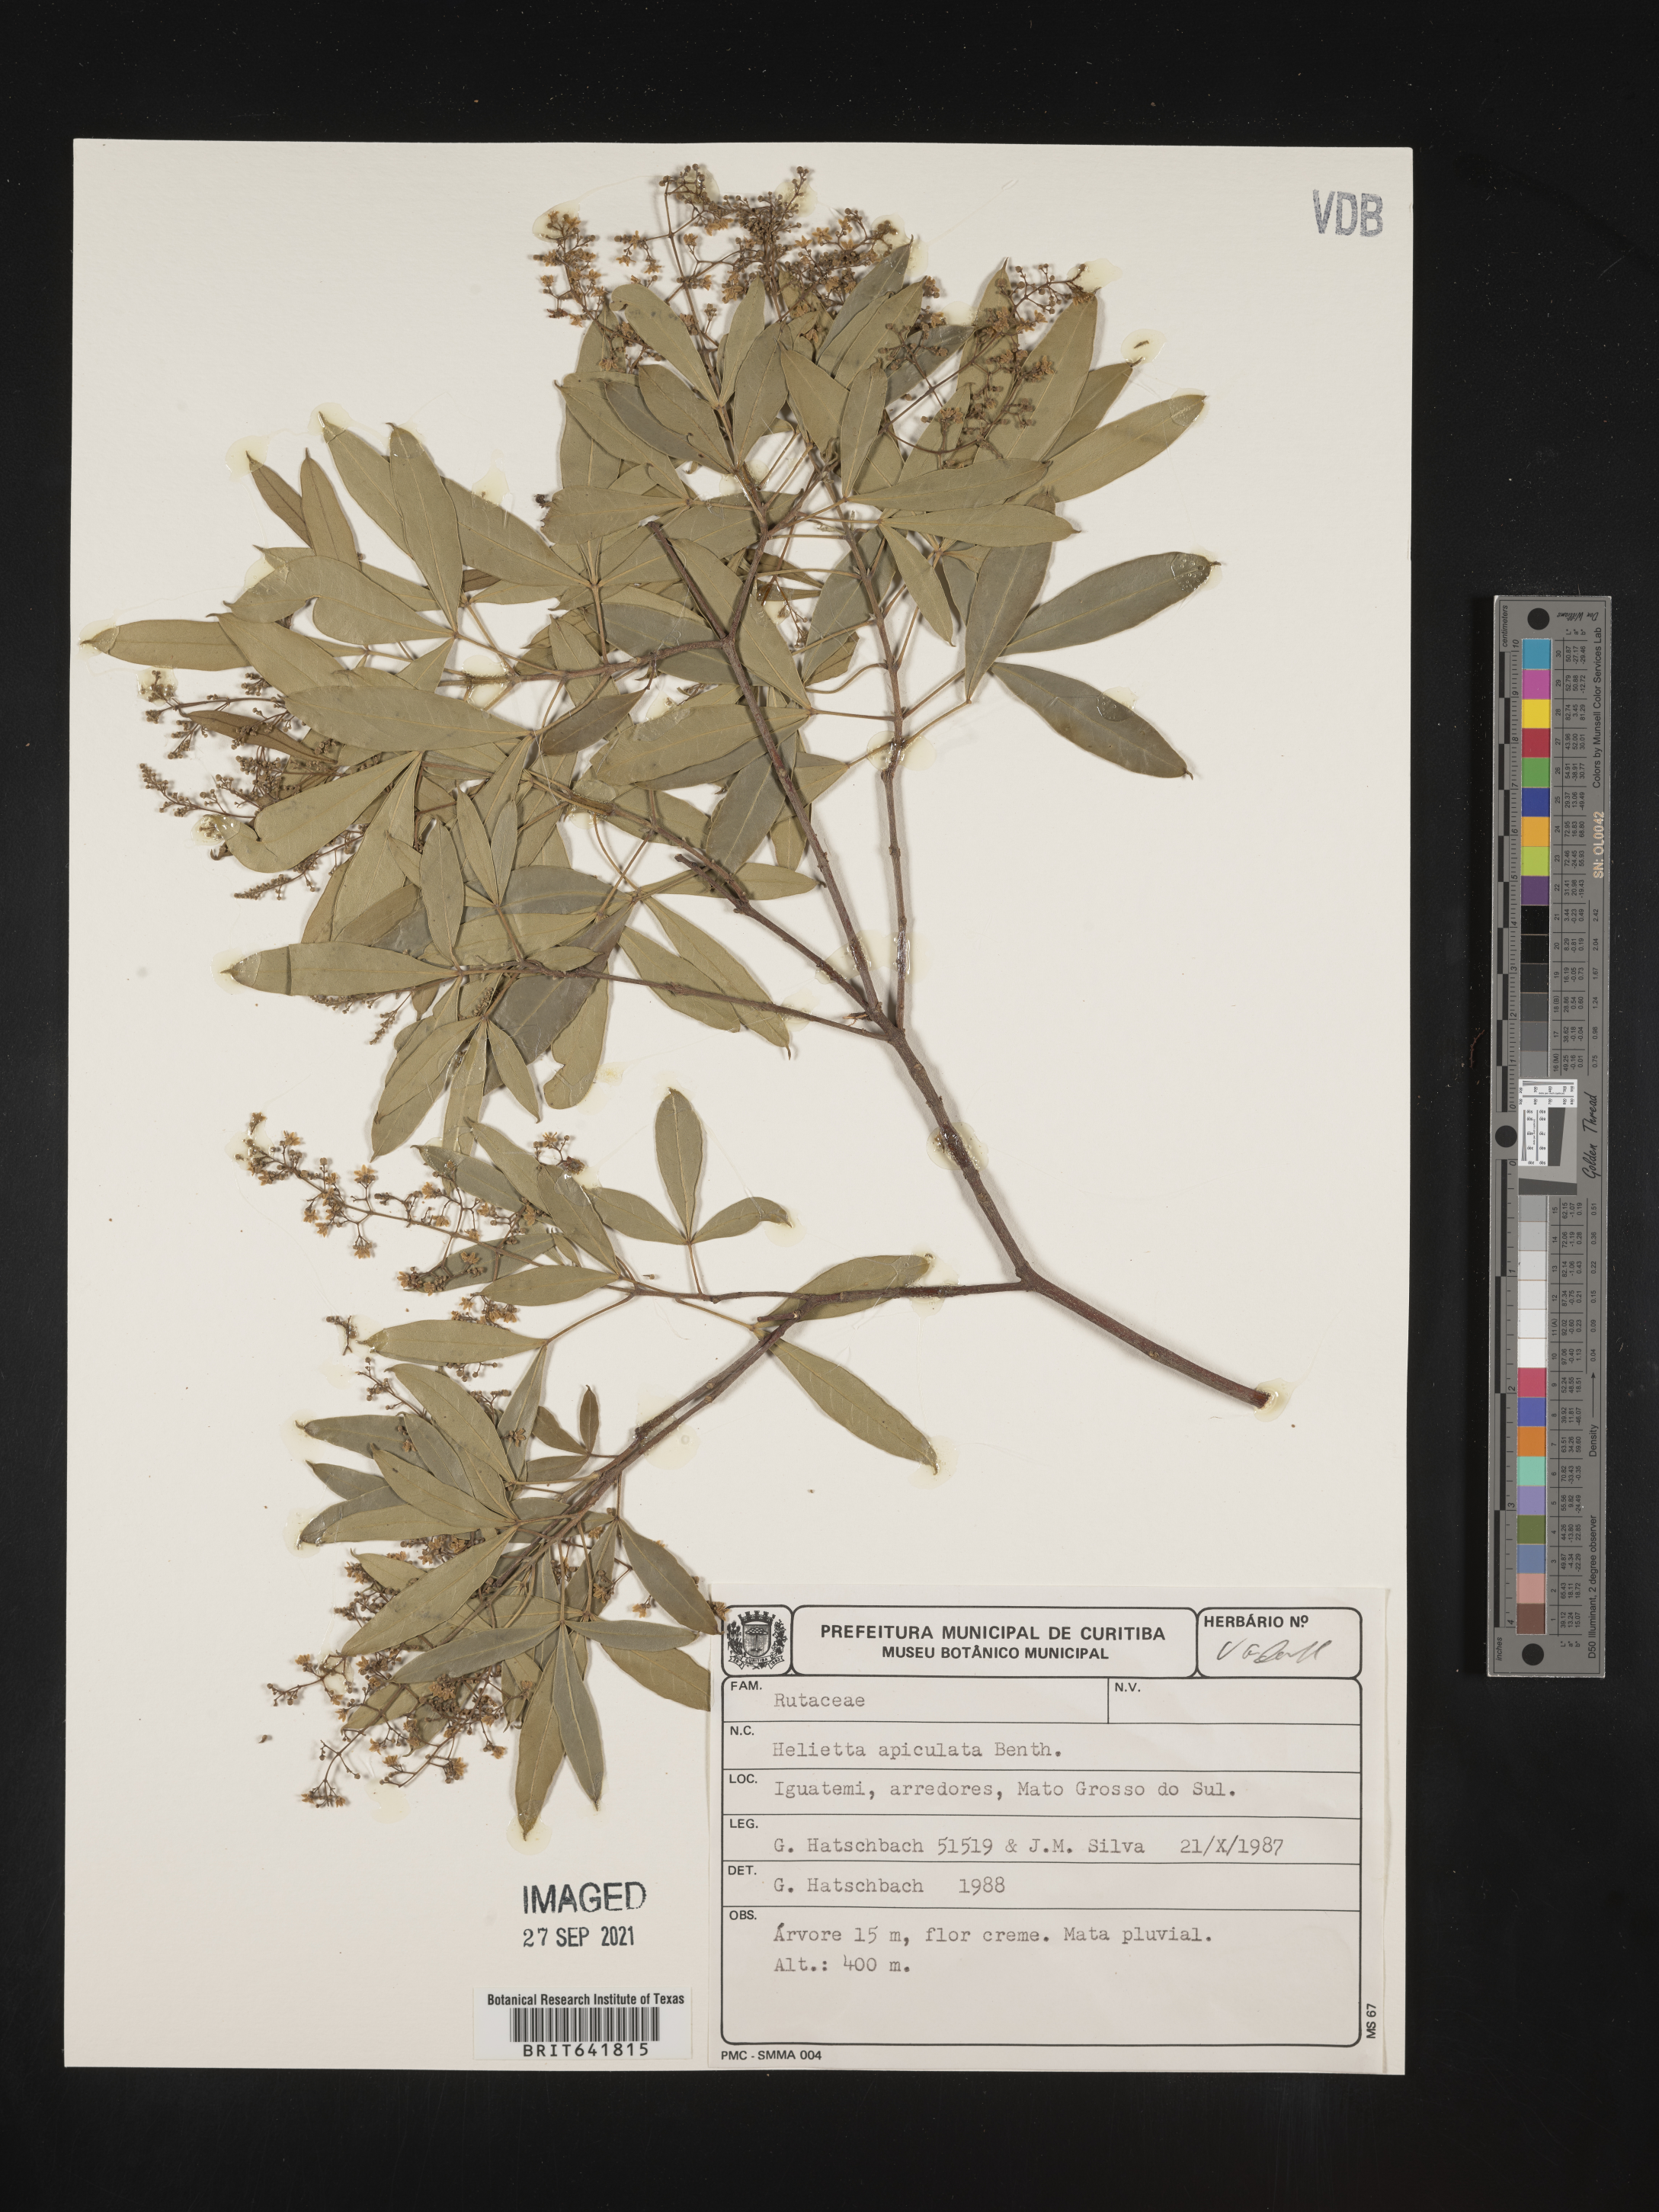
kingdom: Plantae
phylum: Tracheophyta
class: Magnoliopsida
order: Sapindales
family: Rutaceae
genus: Helietta
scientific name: Helietta
